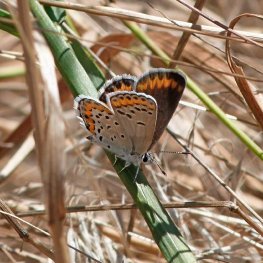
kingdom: Animalia
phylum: Arthropoda
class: Insecta
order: Lepidoptera
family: Lycaenidae
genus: Lycaeides
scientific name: Lycaeides melissa
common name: Melissa Blue
